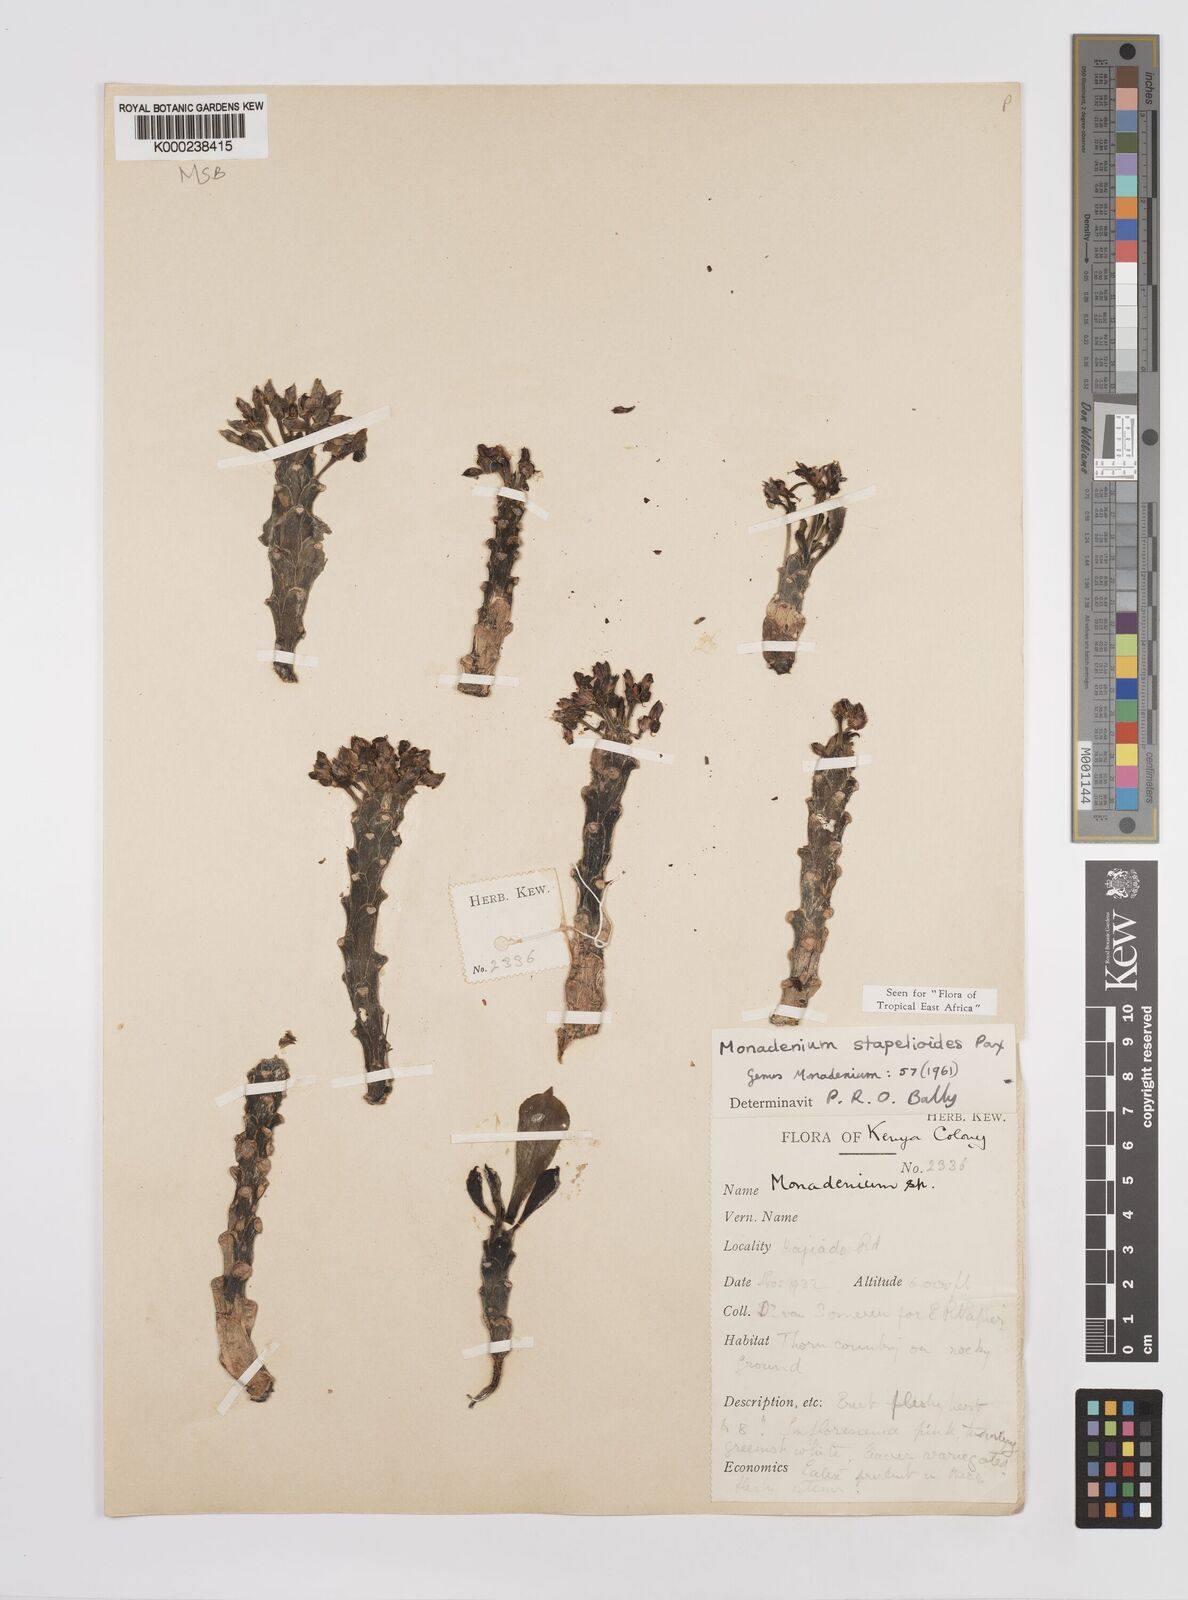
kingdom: Plantae
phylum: Tracheophyta
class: Magnoliopsida
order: Malpighiales
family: Euphorbiaceae
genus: Euphorbia
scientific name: Euphorbia succulenta
